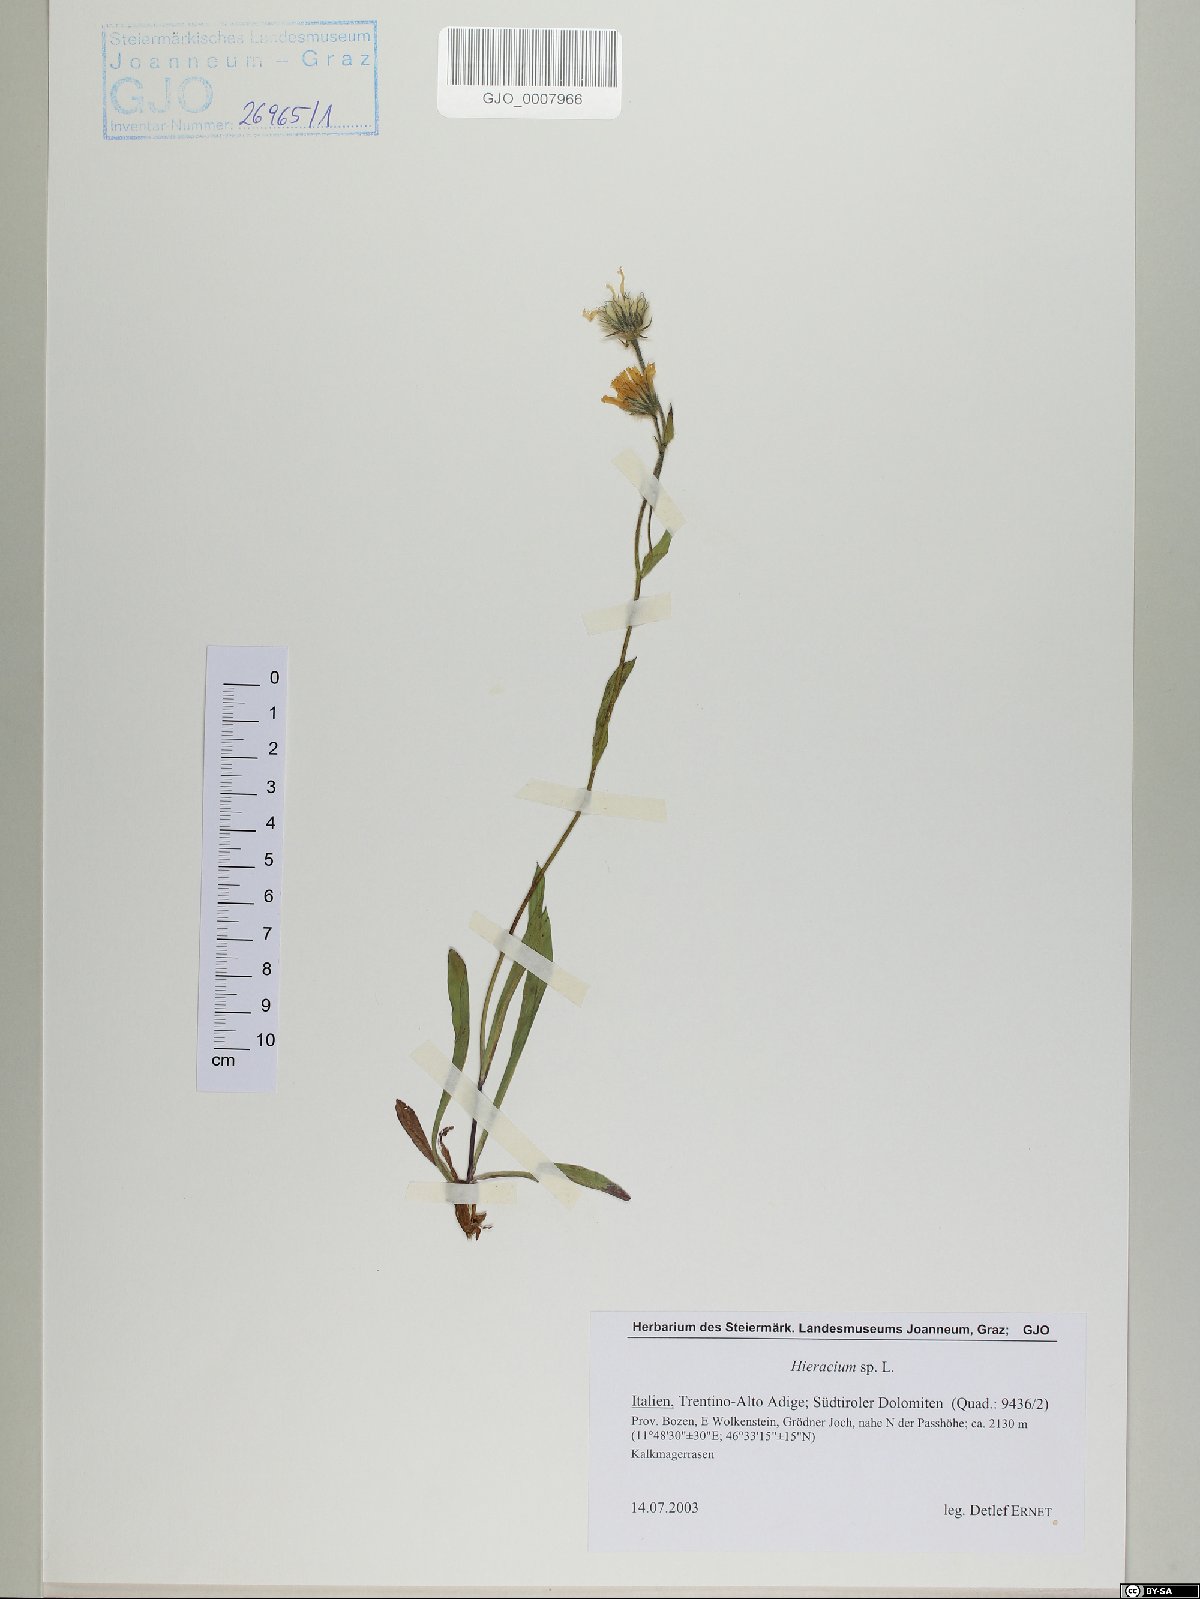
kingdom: Plantae
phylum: Tracheophyta
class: Magnoliopsida
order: Asterales
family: Asteraceae
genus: Hieracium
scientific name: Hieracium
